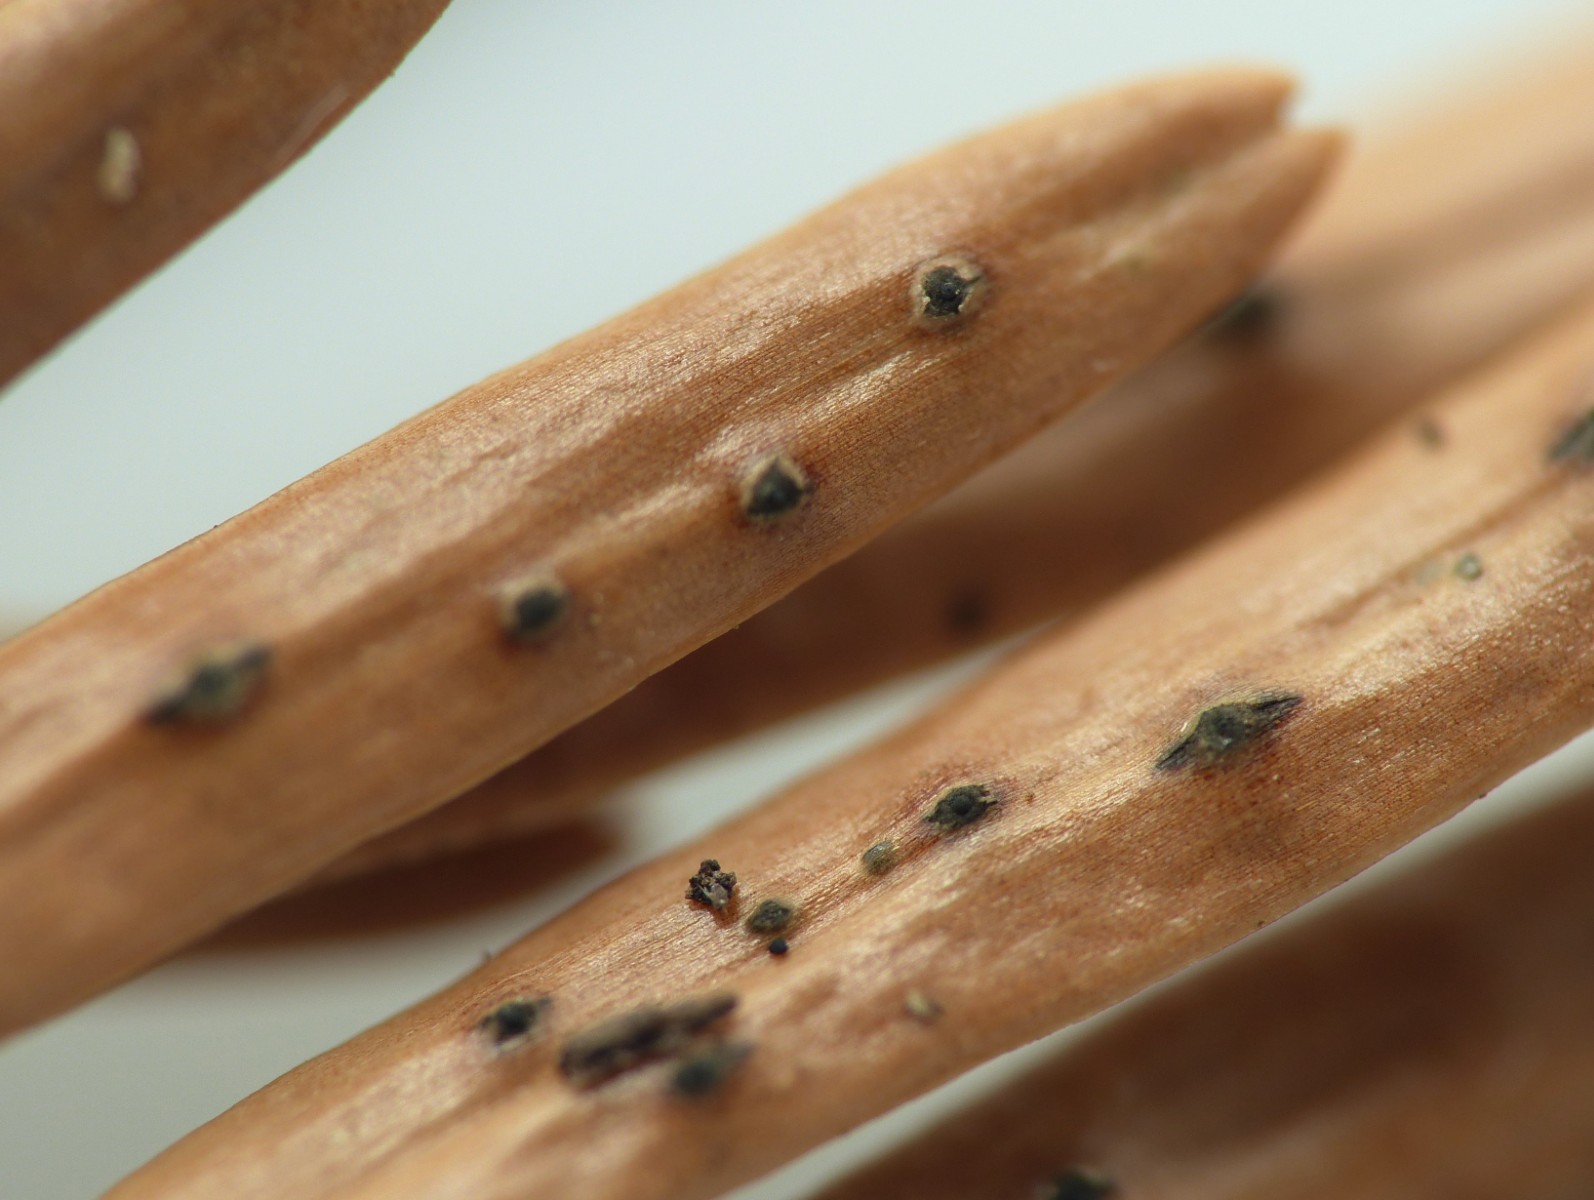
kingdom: Fungi
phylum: Ascomycota
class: Sordariomycetes
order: Diaporthales
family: Valsaceae
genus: Cytospora
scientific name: Cytospora pinastri
